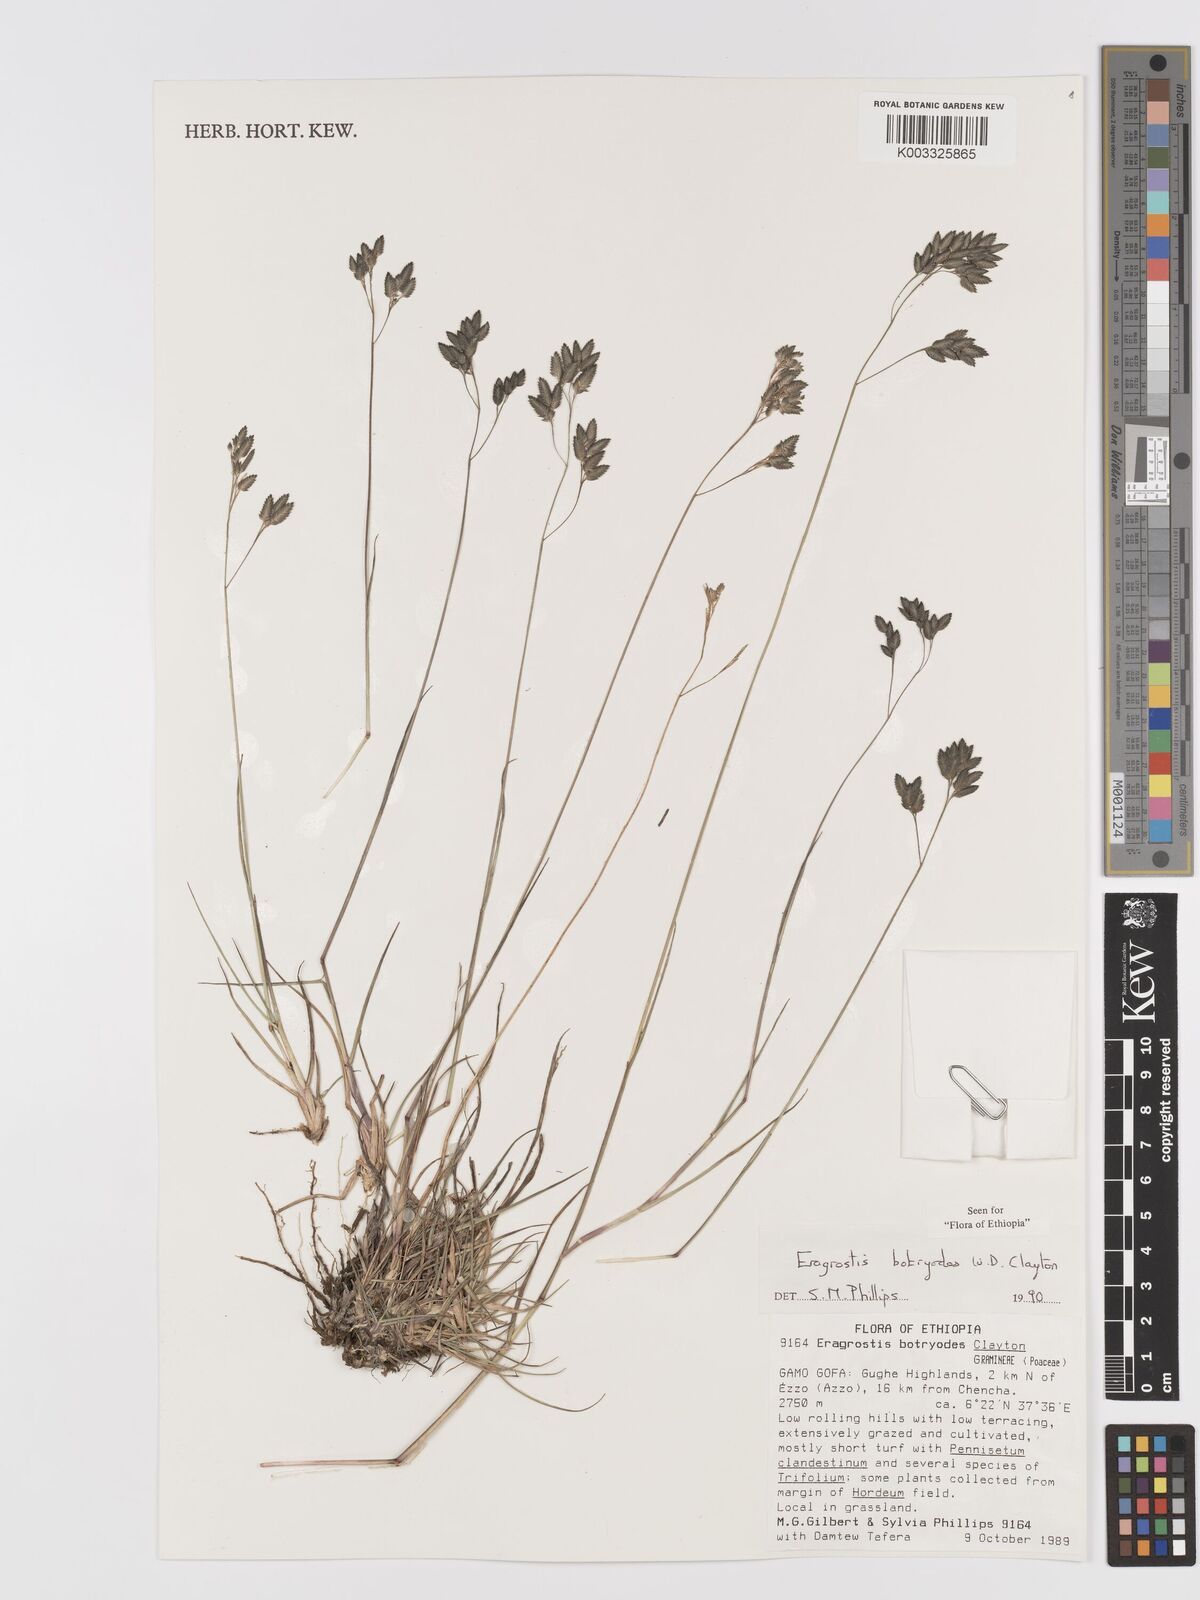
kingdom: Plantae
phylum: Tracheophyta
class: Liliopsida
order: Poales
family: Poaceae
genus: Eragrostis
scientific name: Eragrostis botryodes
